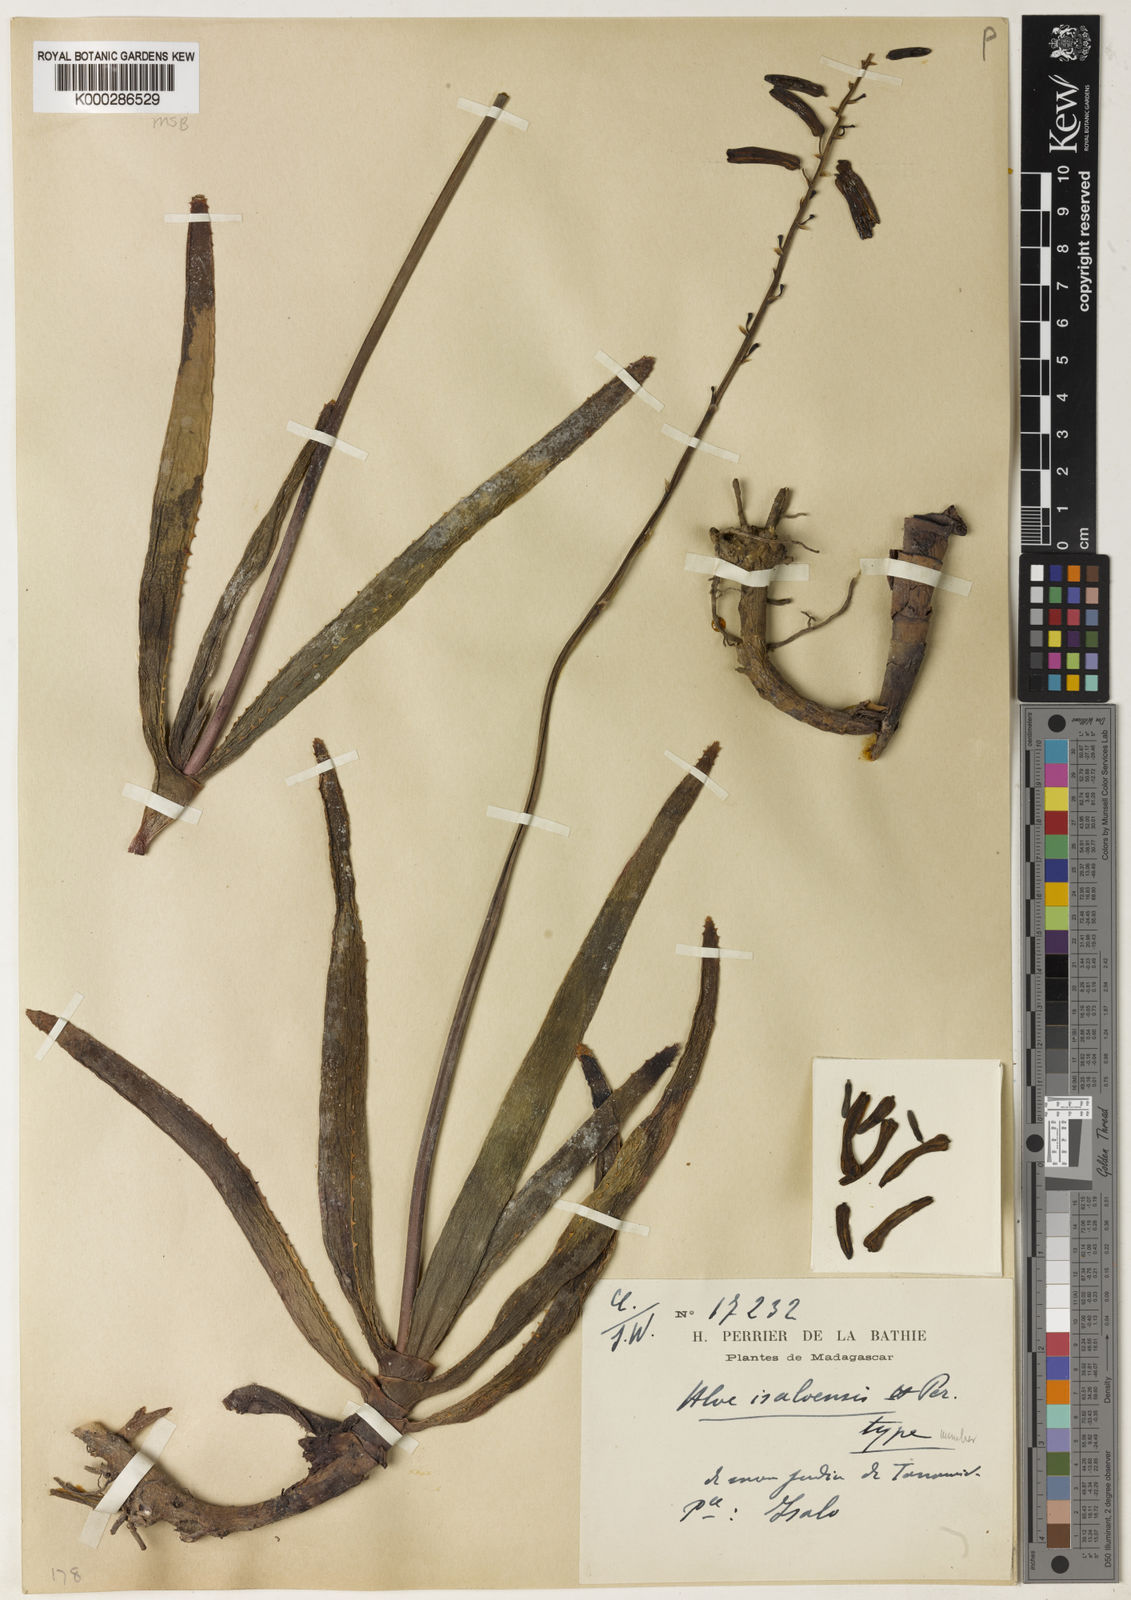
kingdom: Plantae
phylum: Tracheophyta
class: Liliopsida
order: Asparagales
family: Asphodelaceae
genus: Aloe
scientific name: Aloe
